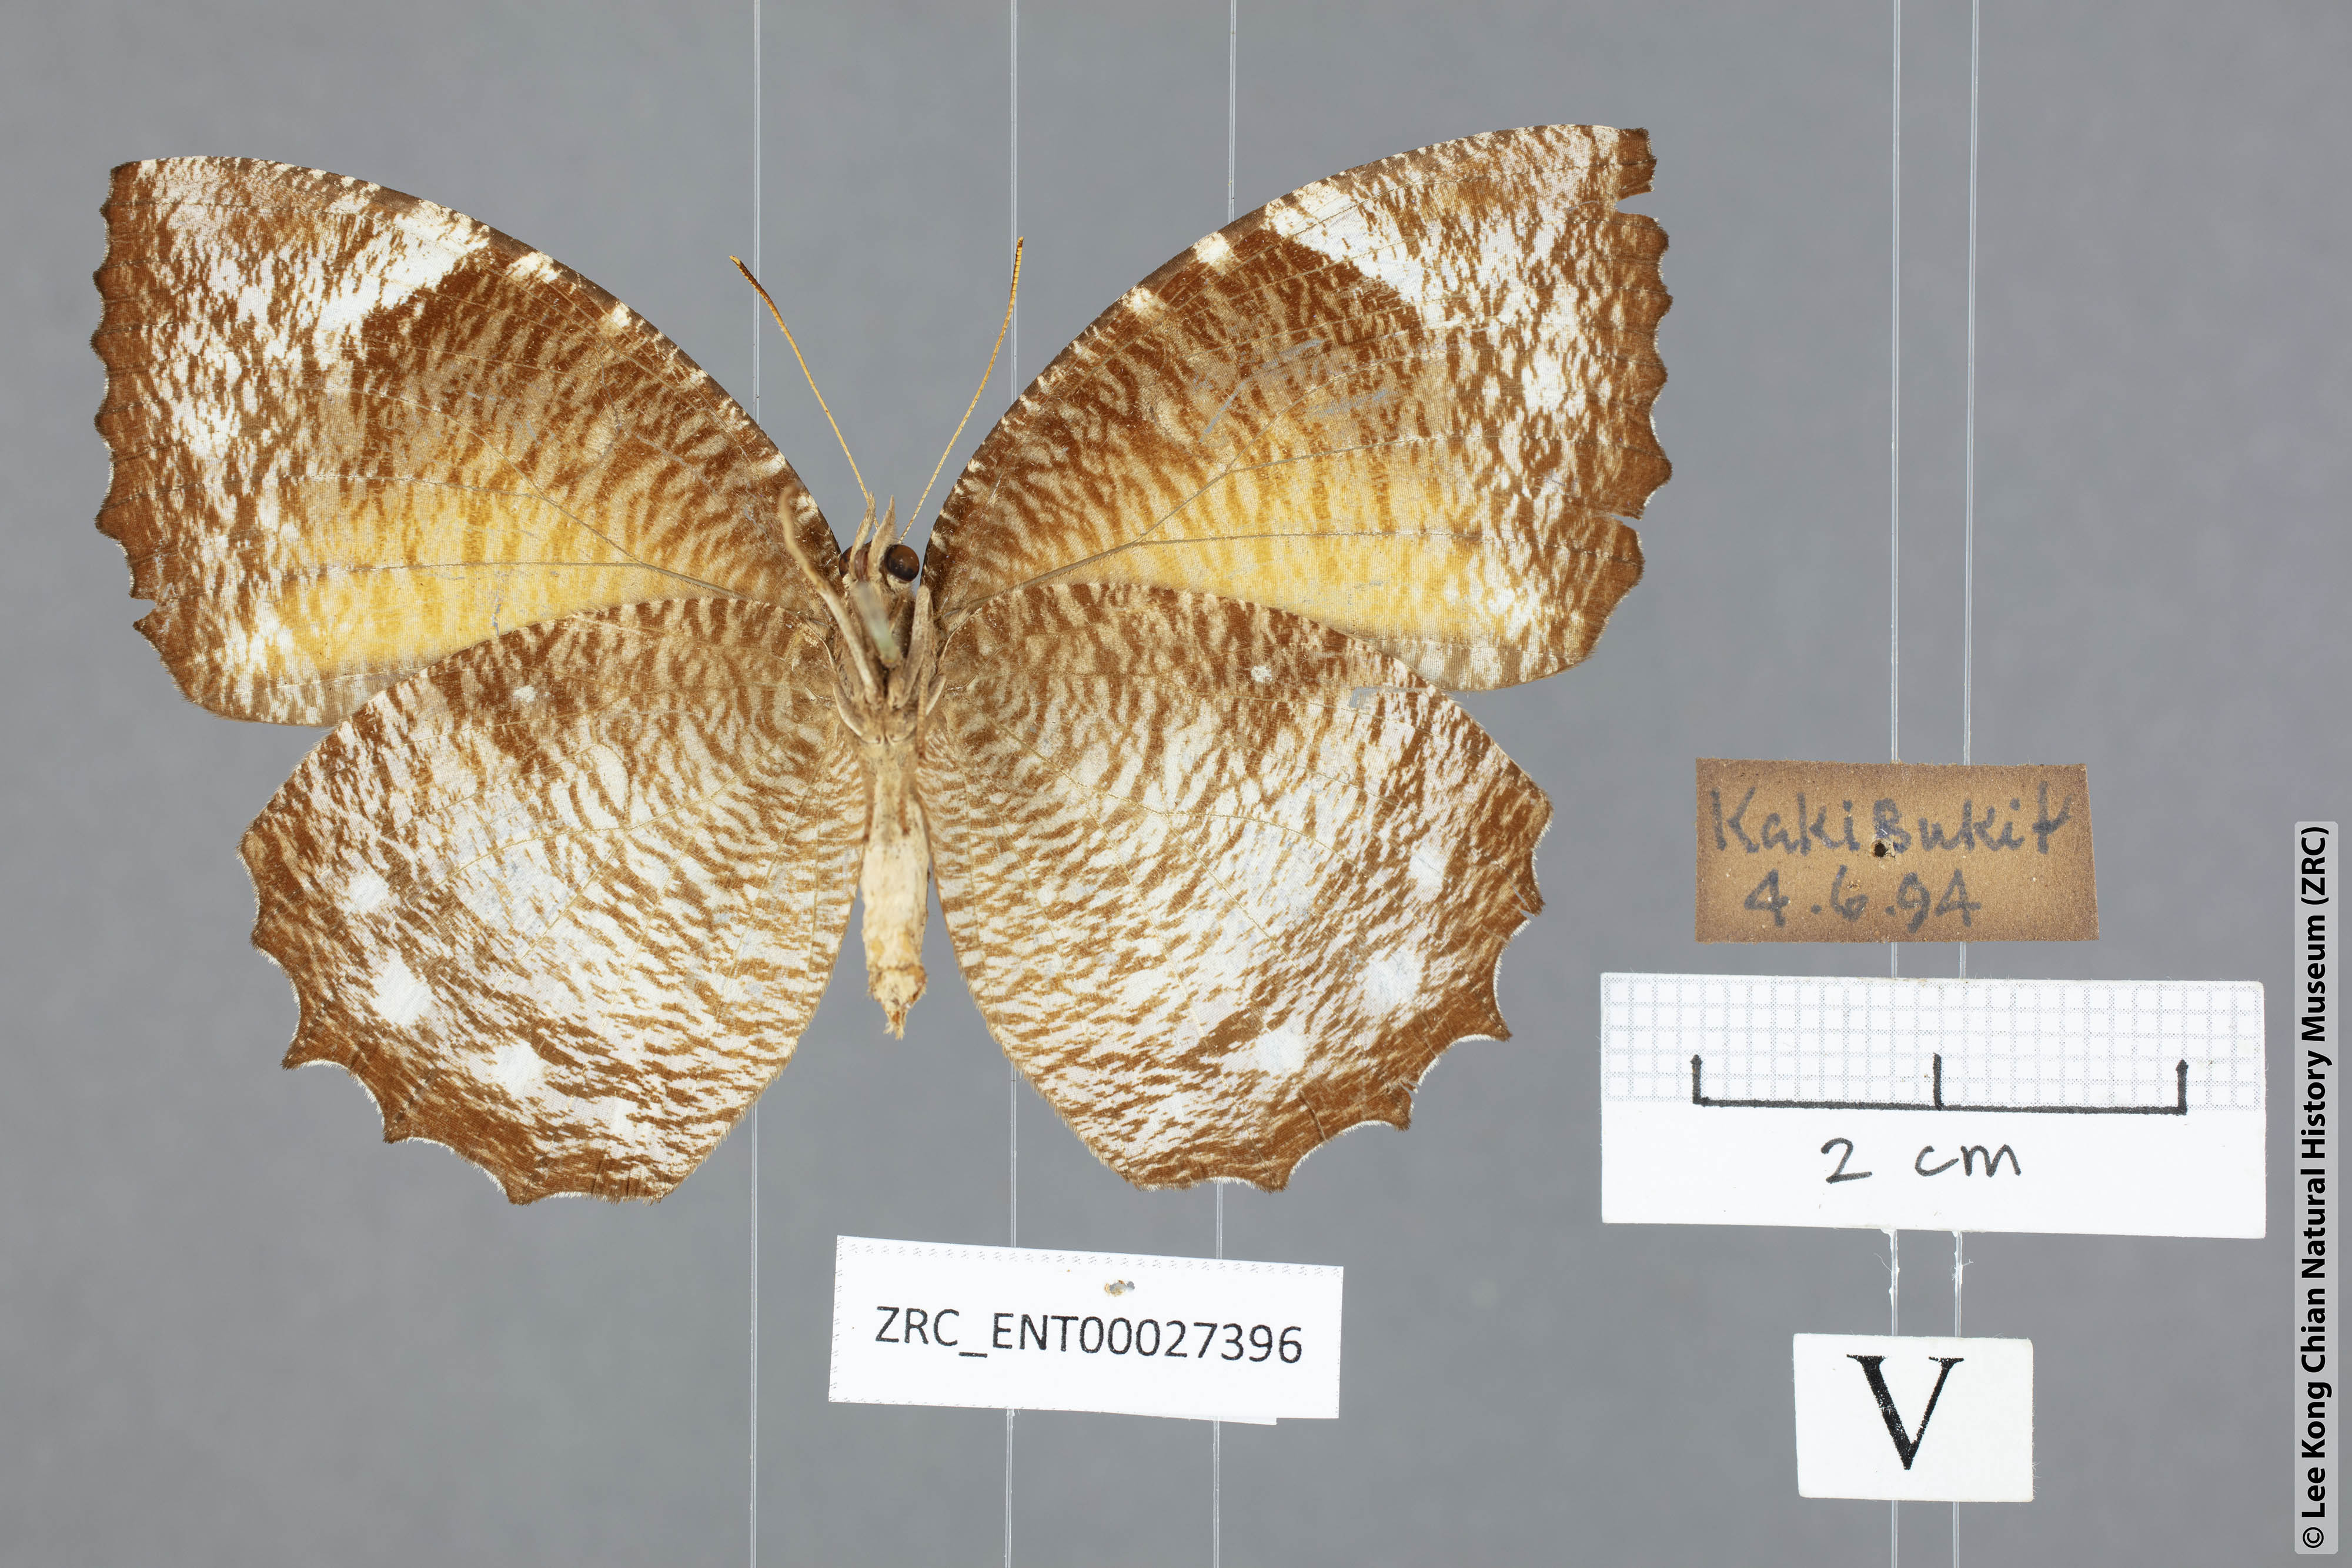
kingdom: Animalia
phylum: Arthropoda
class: Insecta
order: Lepidoptera
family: Nymphalidae
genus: Elymnias
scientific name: Elymnias hypermnestra
